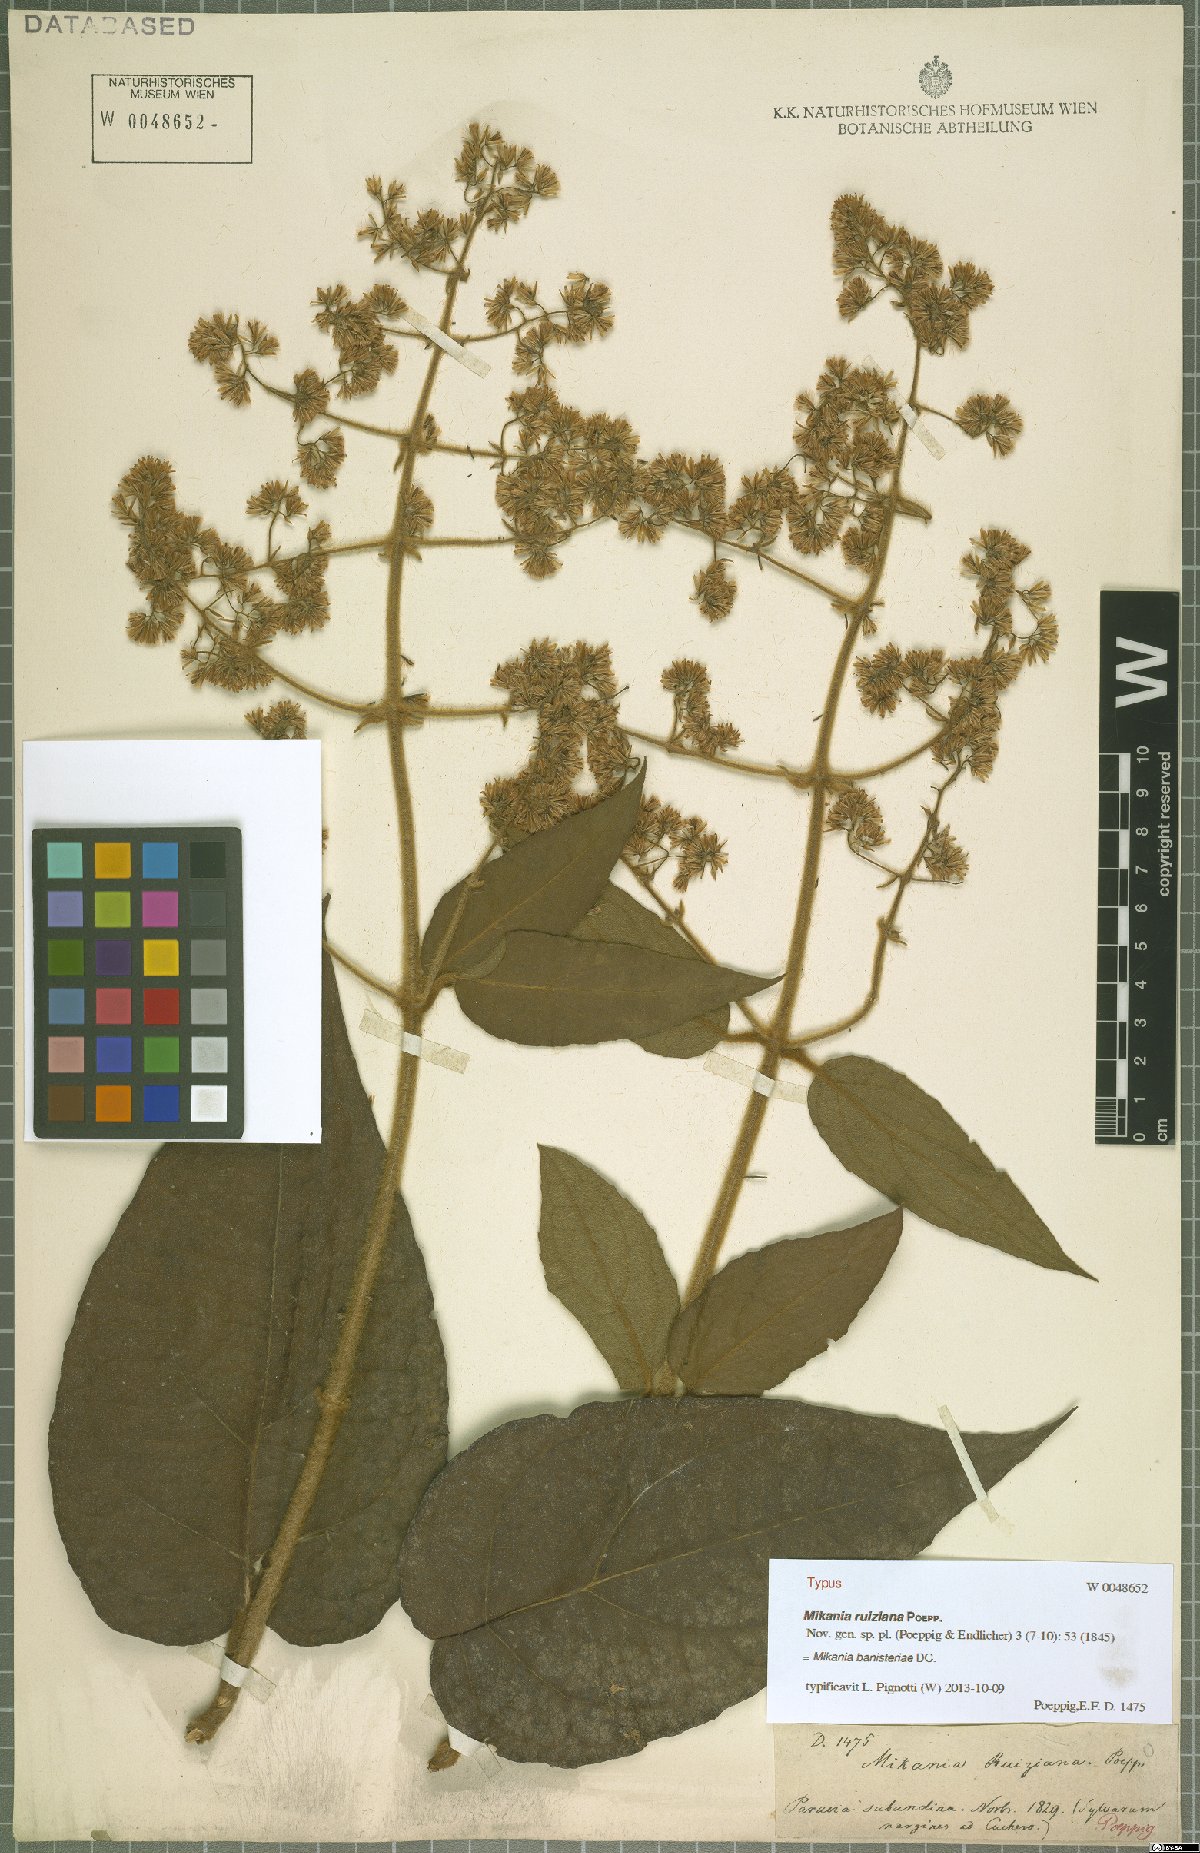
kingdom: Plantae
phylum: Tracheophyta
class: Magnoliopsida
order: Asterales
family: Asteraceae
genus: Mikania
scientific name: Mikania banisteriae
